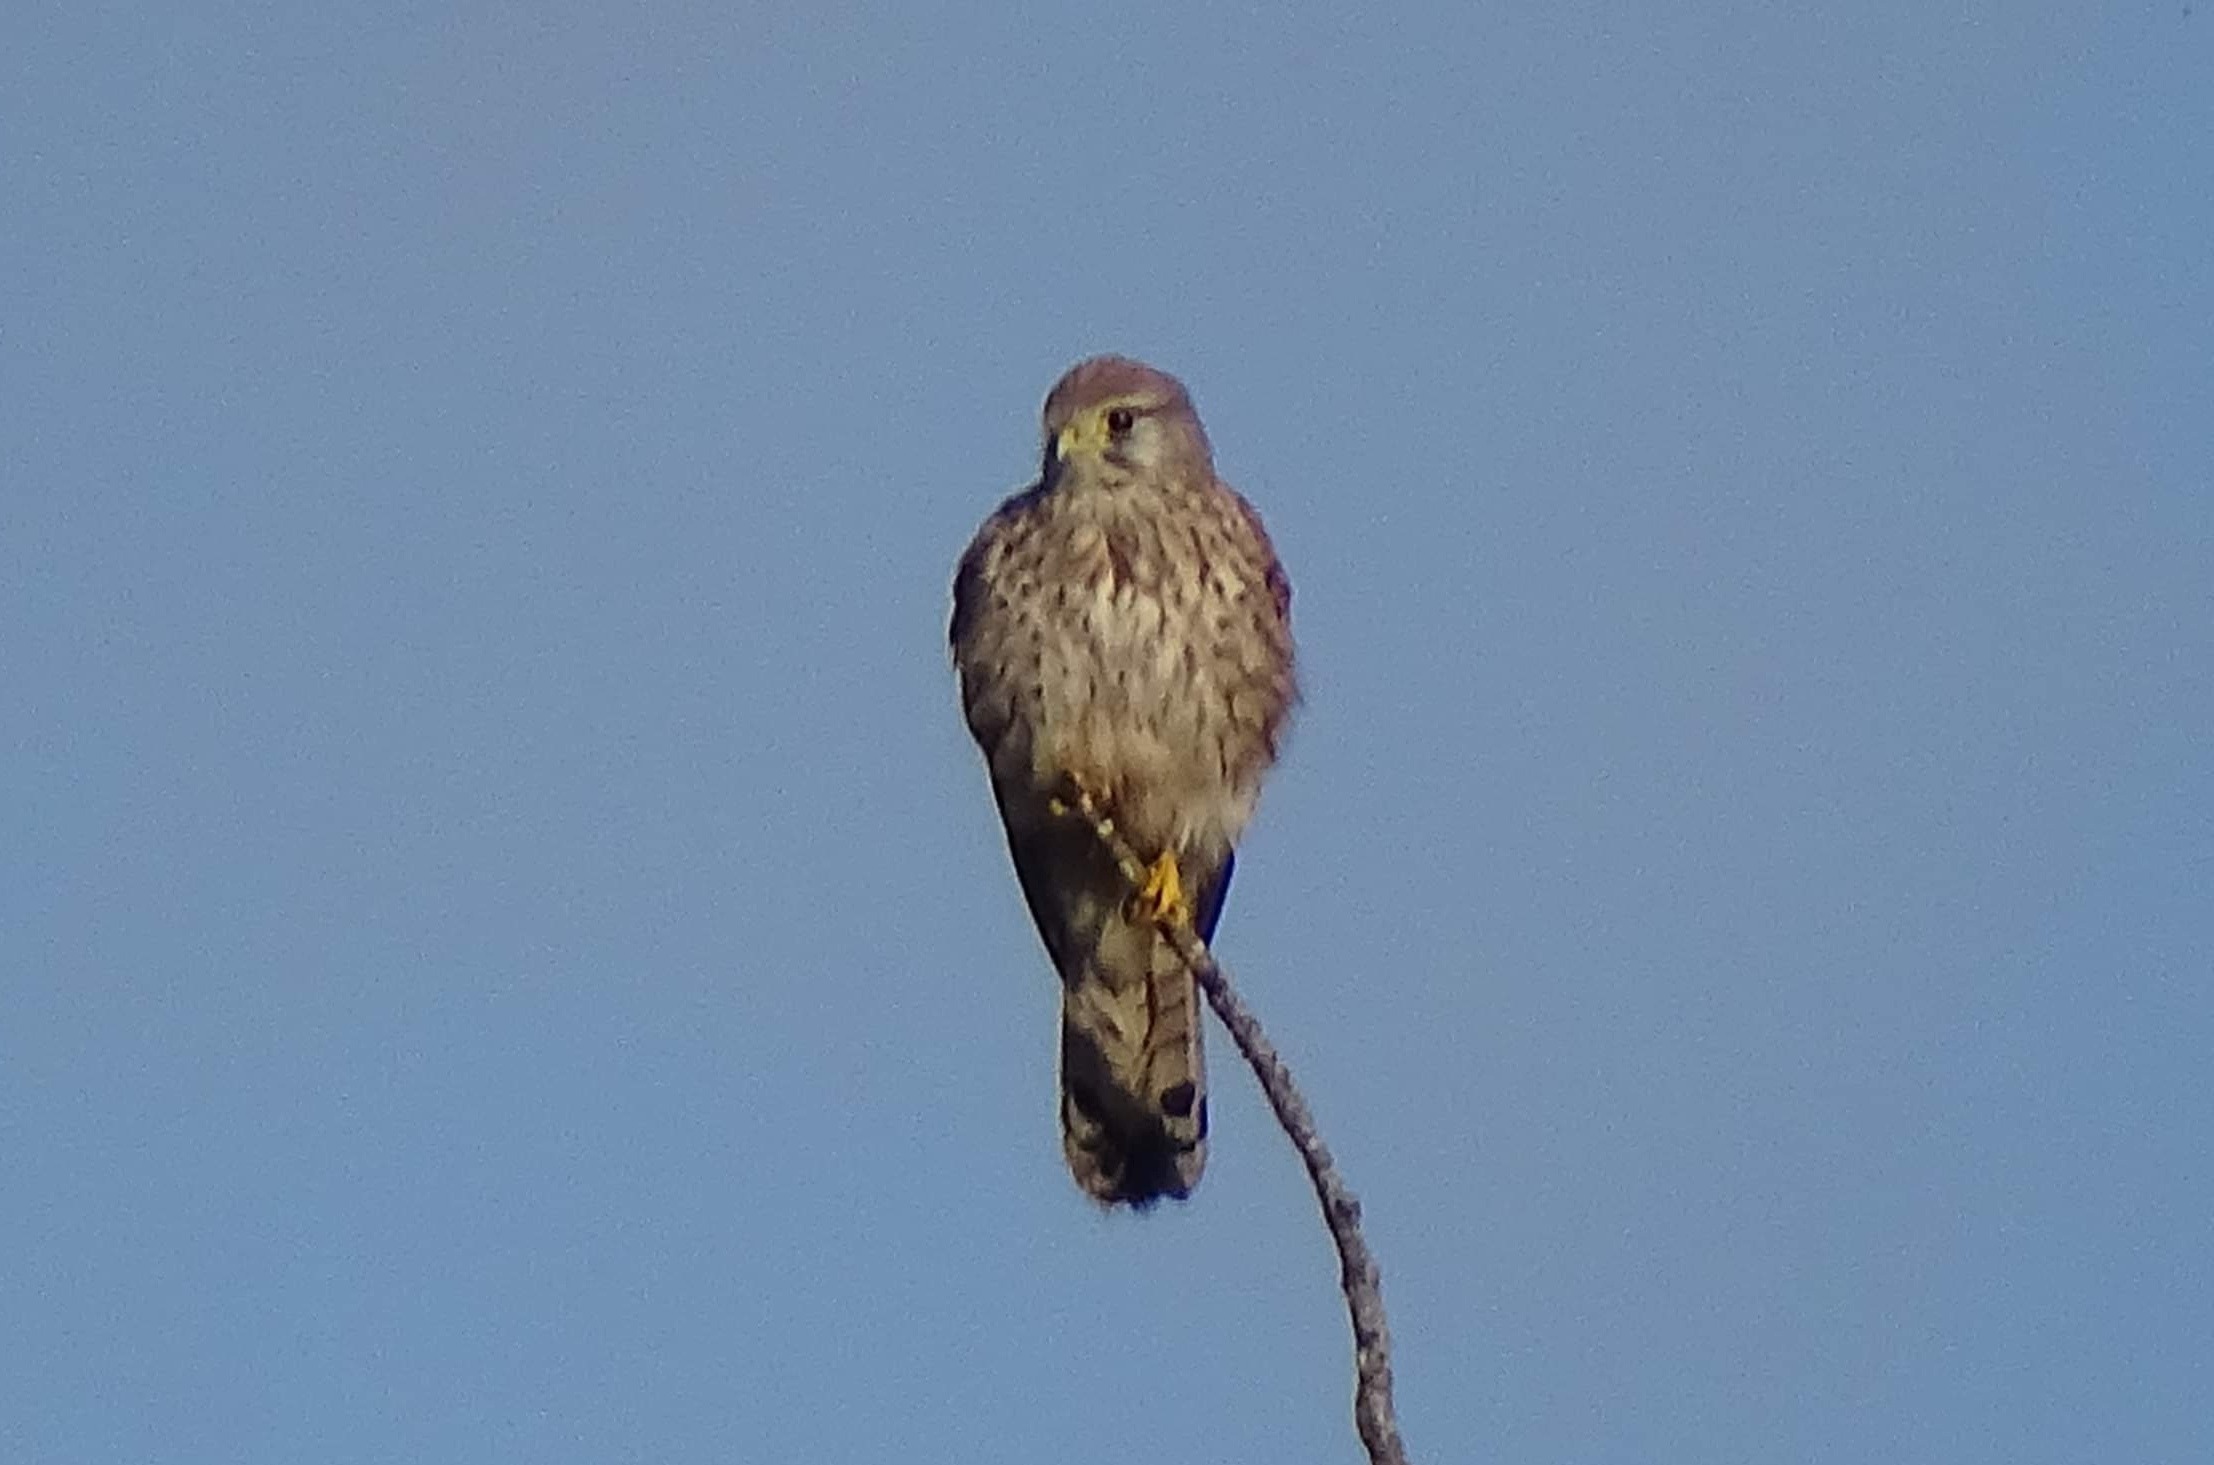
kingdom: Animalia
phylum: Chordata
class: Aves
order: Falconiformes
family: Falconidae
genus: Falco
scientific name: Falco tinnunculus
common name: Tårnfalk
